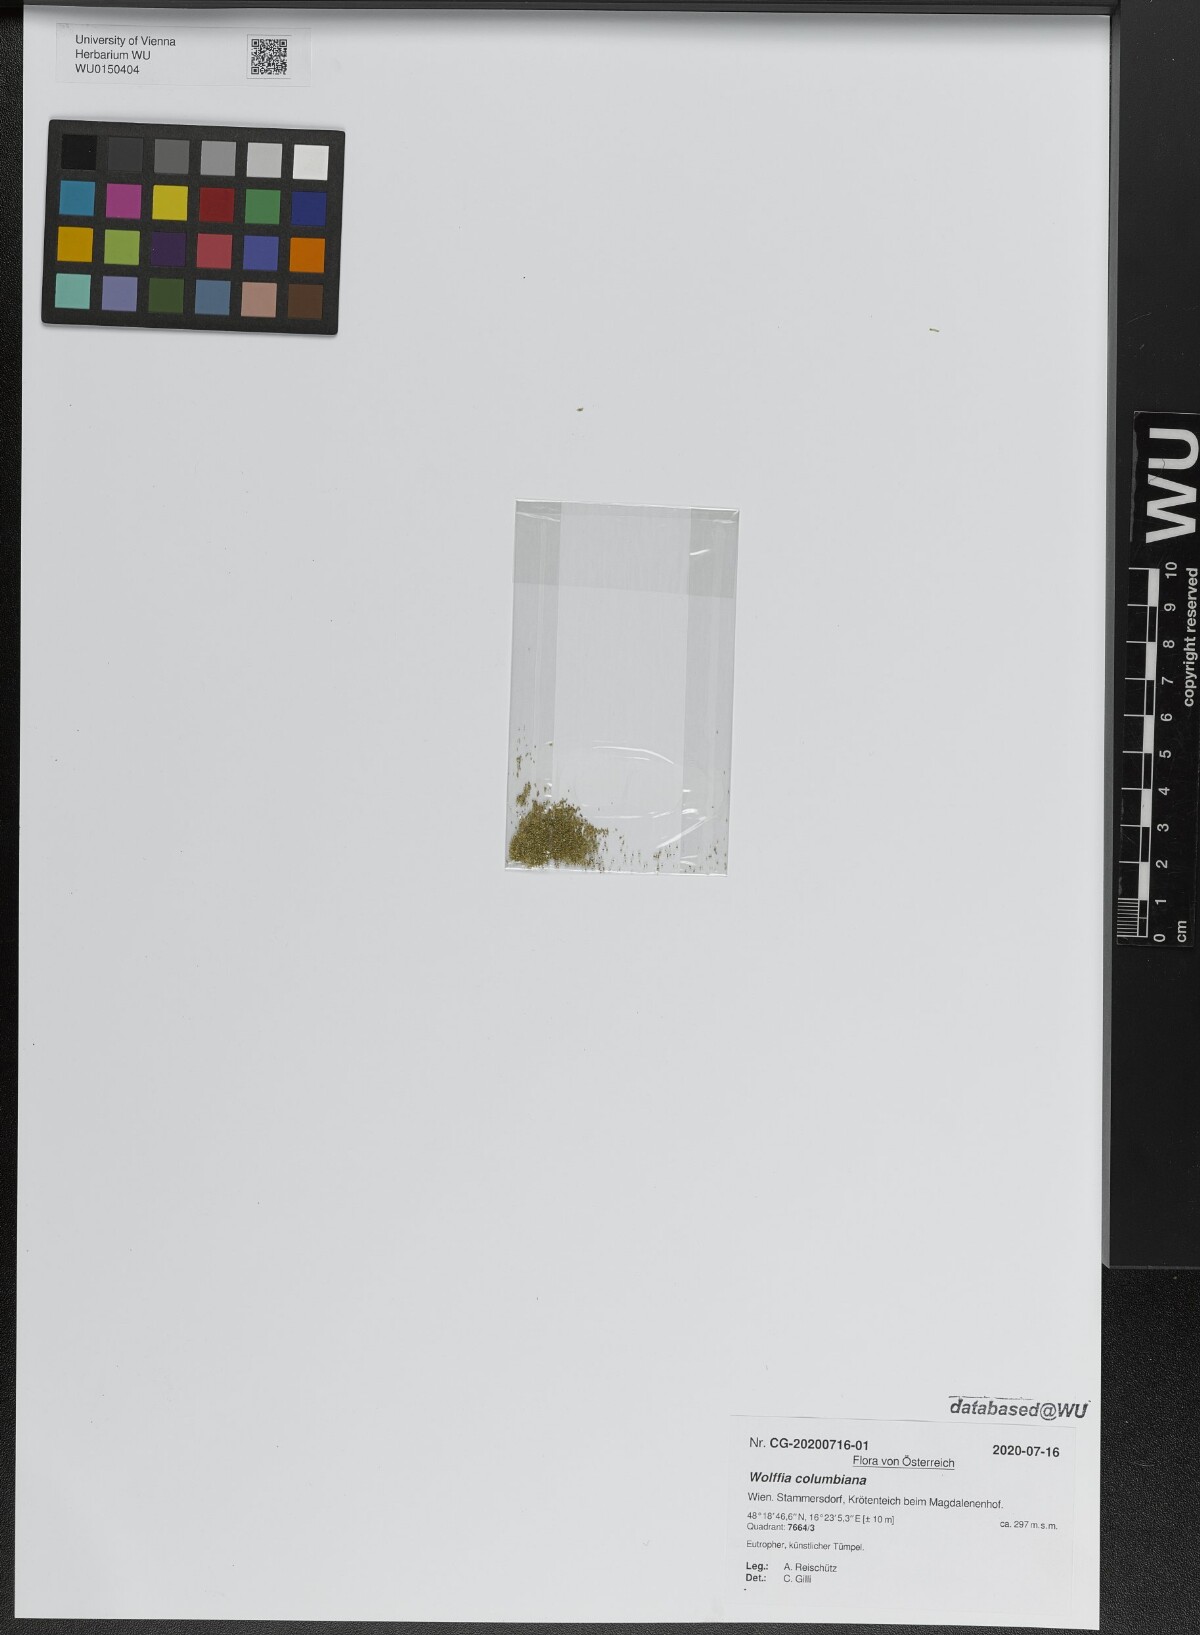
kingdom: Plantae
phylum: Tracheophyta
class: Liliopsida
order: Alismatales
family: Araceae
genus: Wolffia
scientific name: Wolffia columbiana
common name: Columbia watermeal
